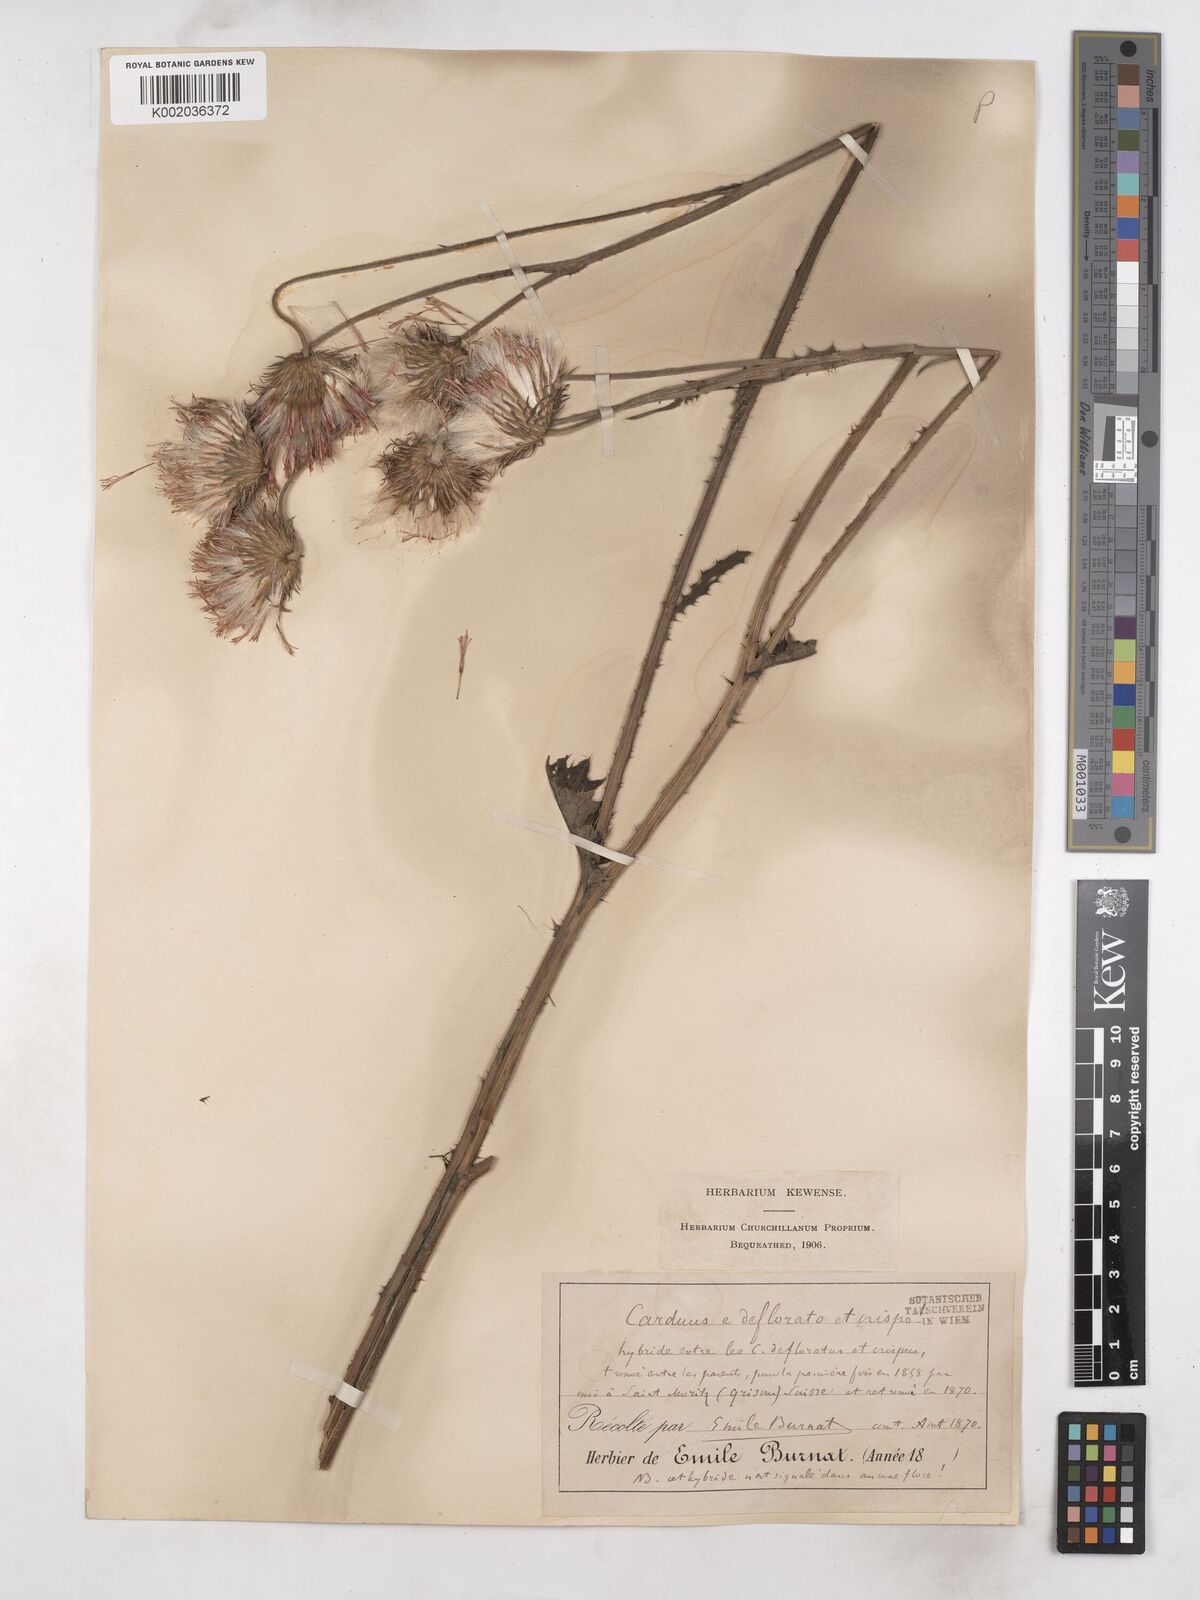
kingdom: Plantae
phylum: Tracheophyta
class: Magnoliopsida
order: Asterales
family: Asteraceae
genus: Carduus
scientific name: Carduus defloratus
